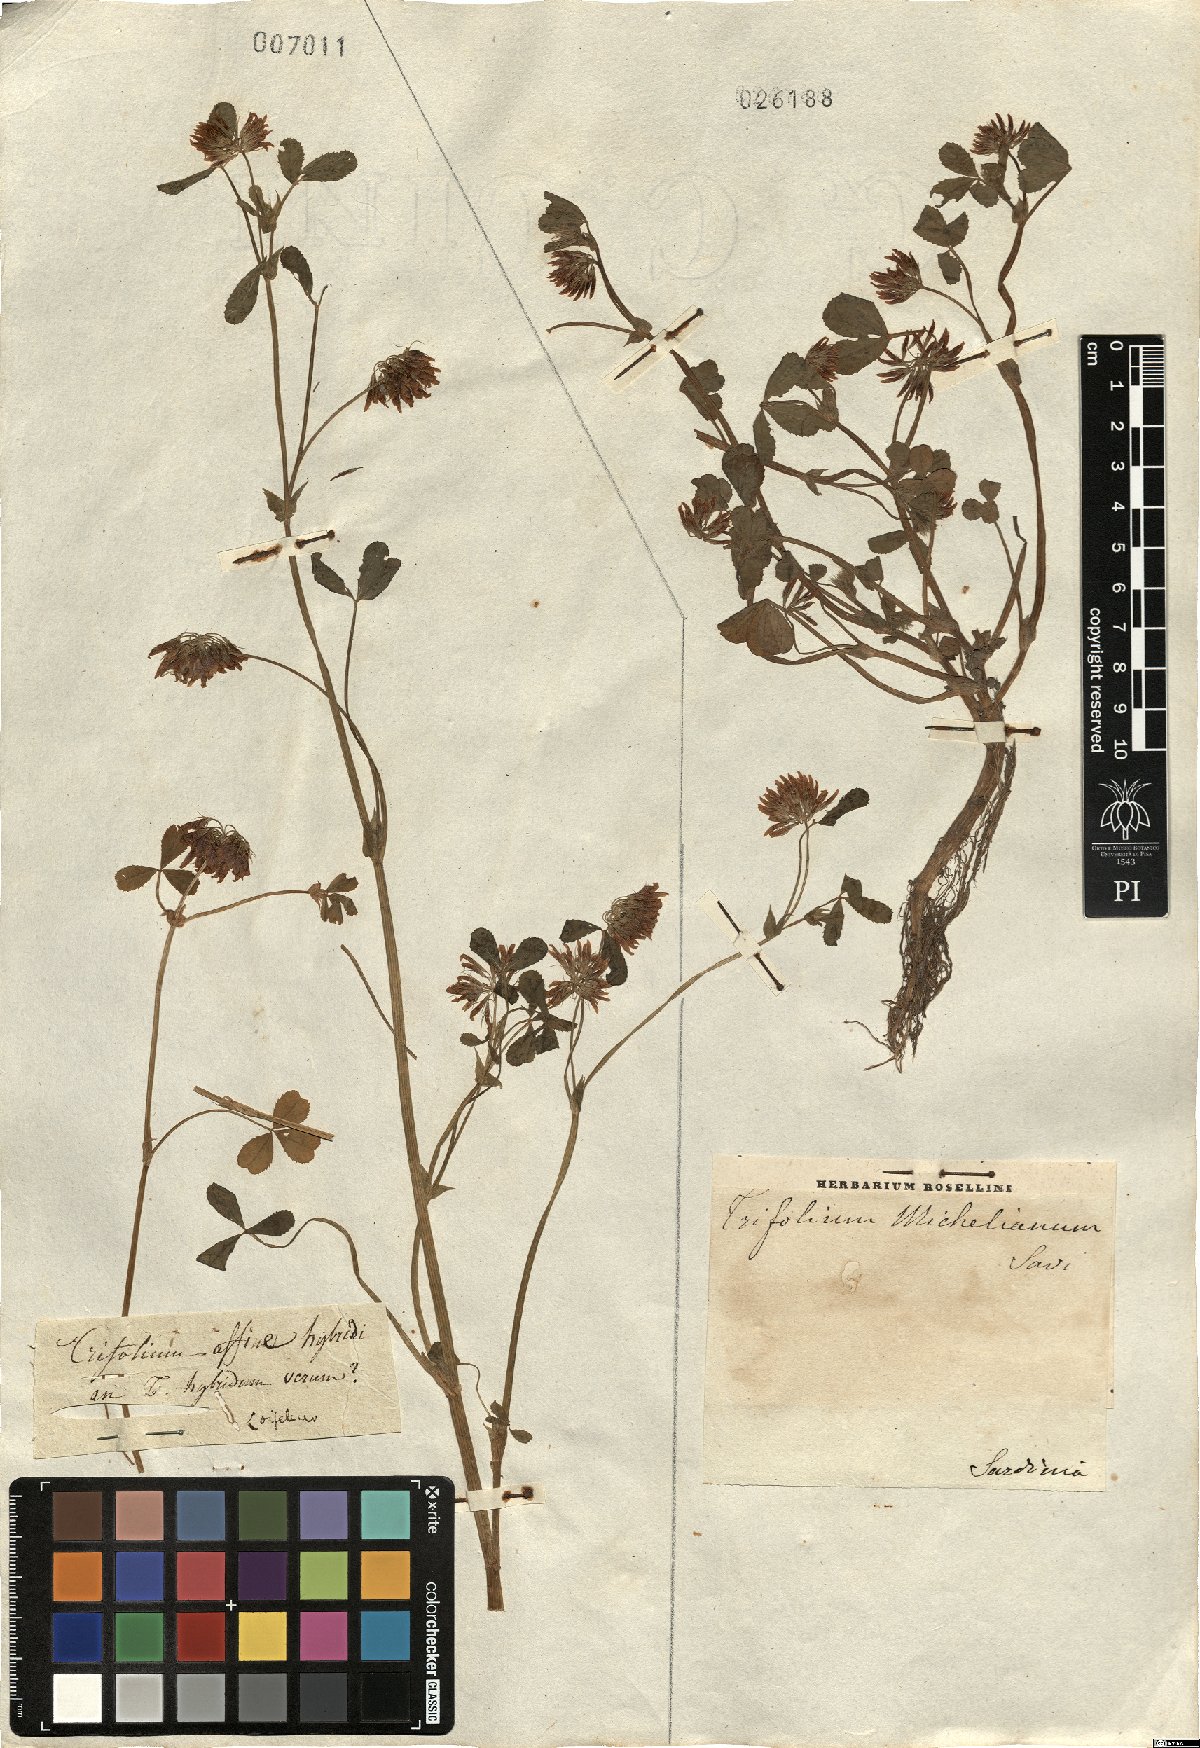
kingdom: Plantae
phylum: Tracheophyta
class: Magnoliopsida
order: Fabales
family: Fabaceae
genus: Trifolium
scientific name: Trifolium hybridum
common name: Alsike clover
